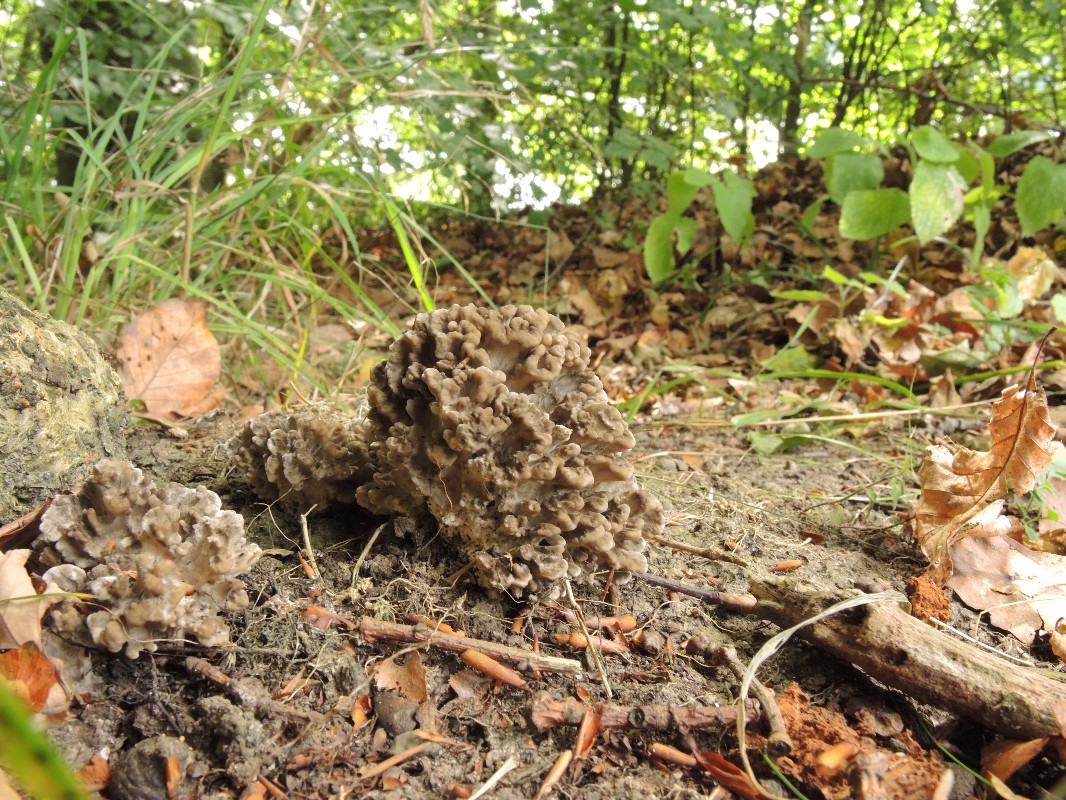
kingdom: Fungi
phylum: Basidiomycota
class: Agaricomycetes
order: Polyporales
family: Grifolaceae
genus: Grifola
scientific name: Grifola frondosa
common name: tueporesvamp
